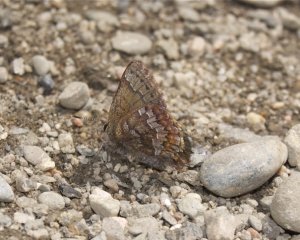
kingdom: Animalia
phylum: Arthropoda
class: Insecta
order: Lepidoptera
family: Lycaenidae
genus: Incisalia
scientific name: Incisalia lanoraieensis
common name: Bog Elfin
